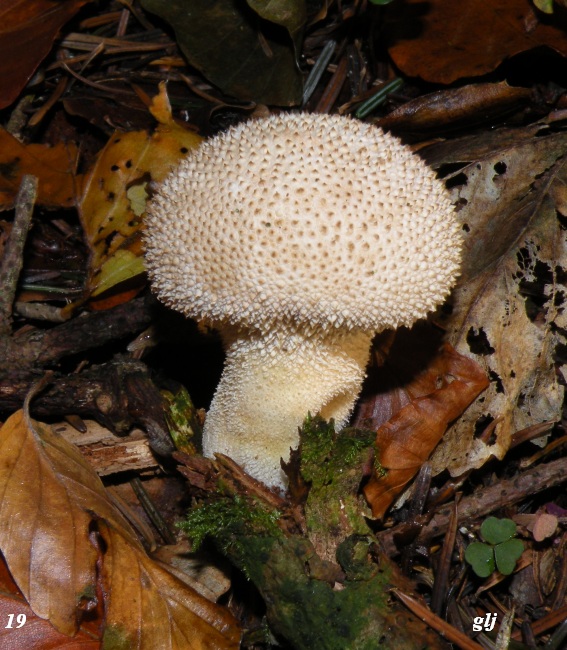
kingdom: Fungi
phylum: Basidiomycota
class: Agaricomycetes
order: Agaricales
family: Lycoperdaceae
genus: Lycoperdon
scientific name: Lycoperdon perlatum
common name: krystal-støvbold
